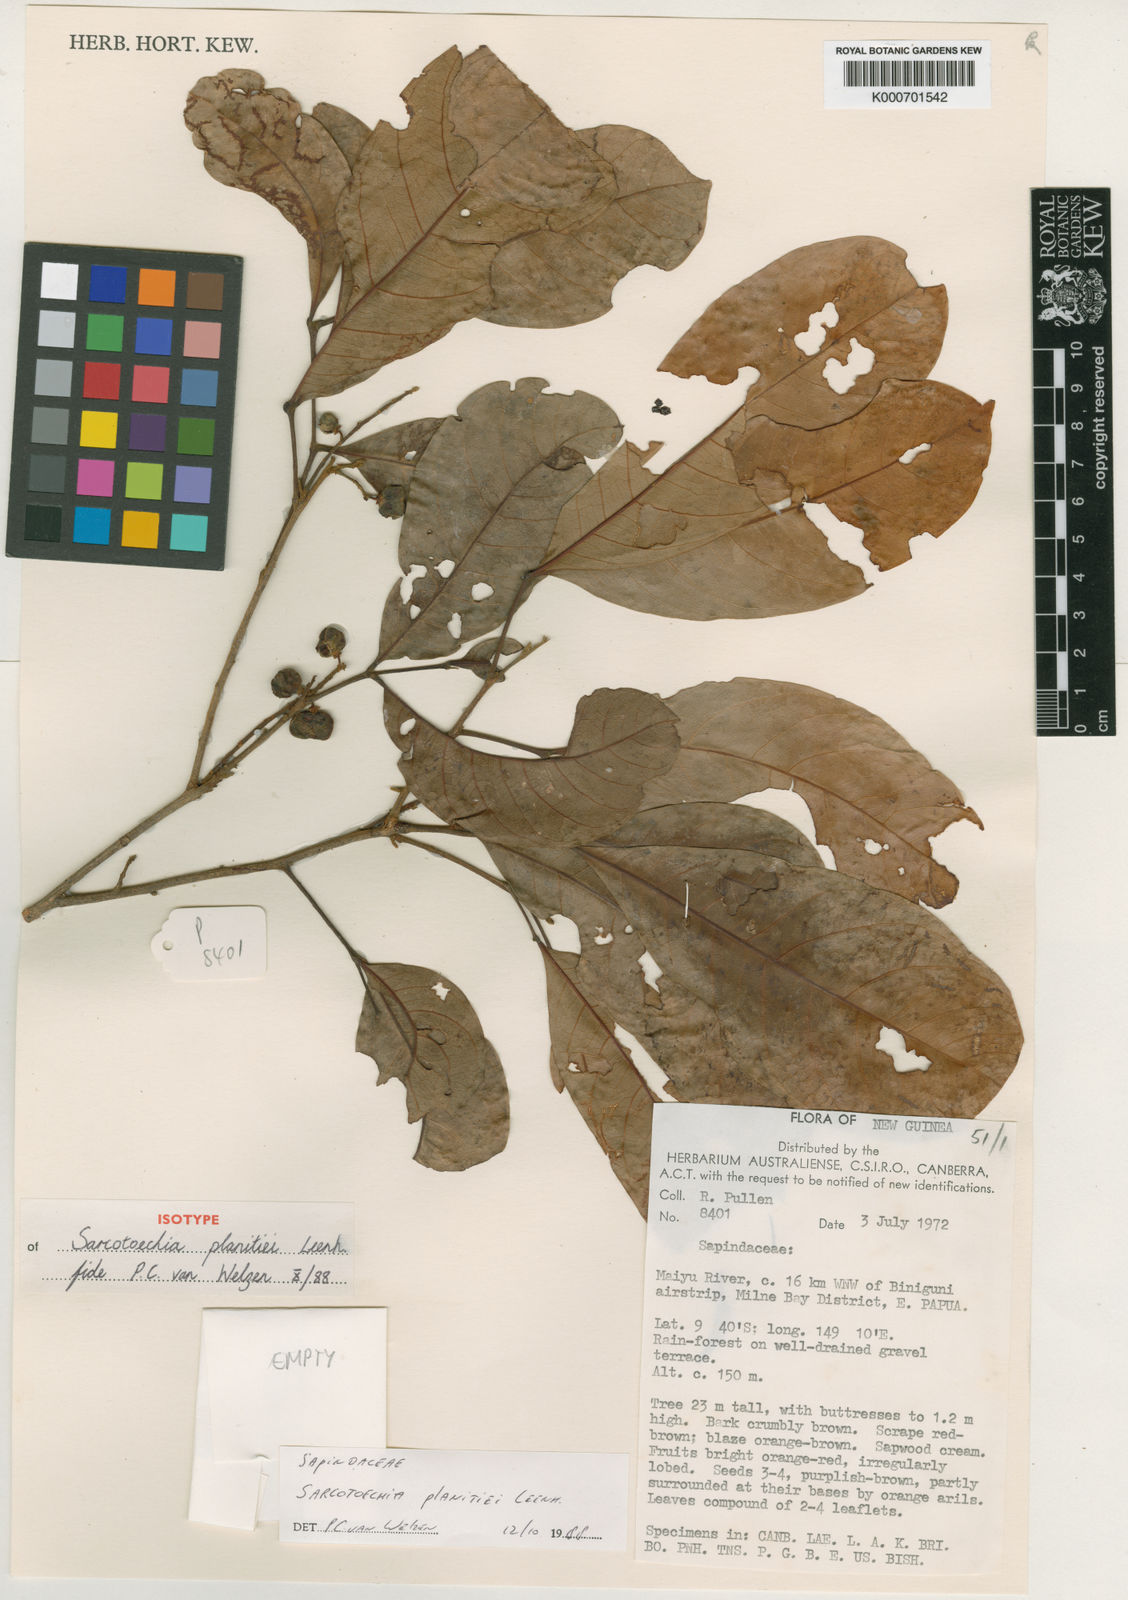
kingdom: Plantae
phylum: Tracheophyta
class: Magnoliopsida
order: Sapindales
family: Sapindaceae
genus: Sarcotoechia
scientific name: Sarcotoechia planitiei
